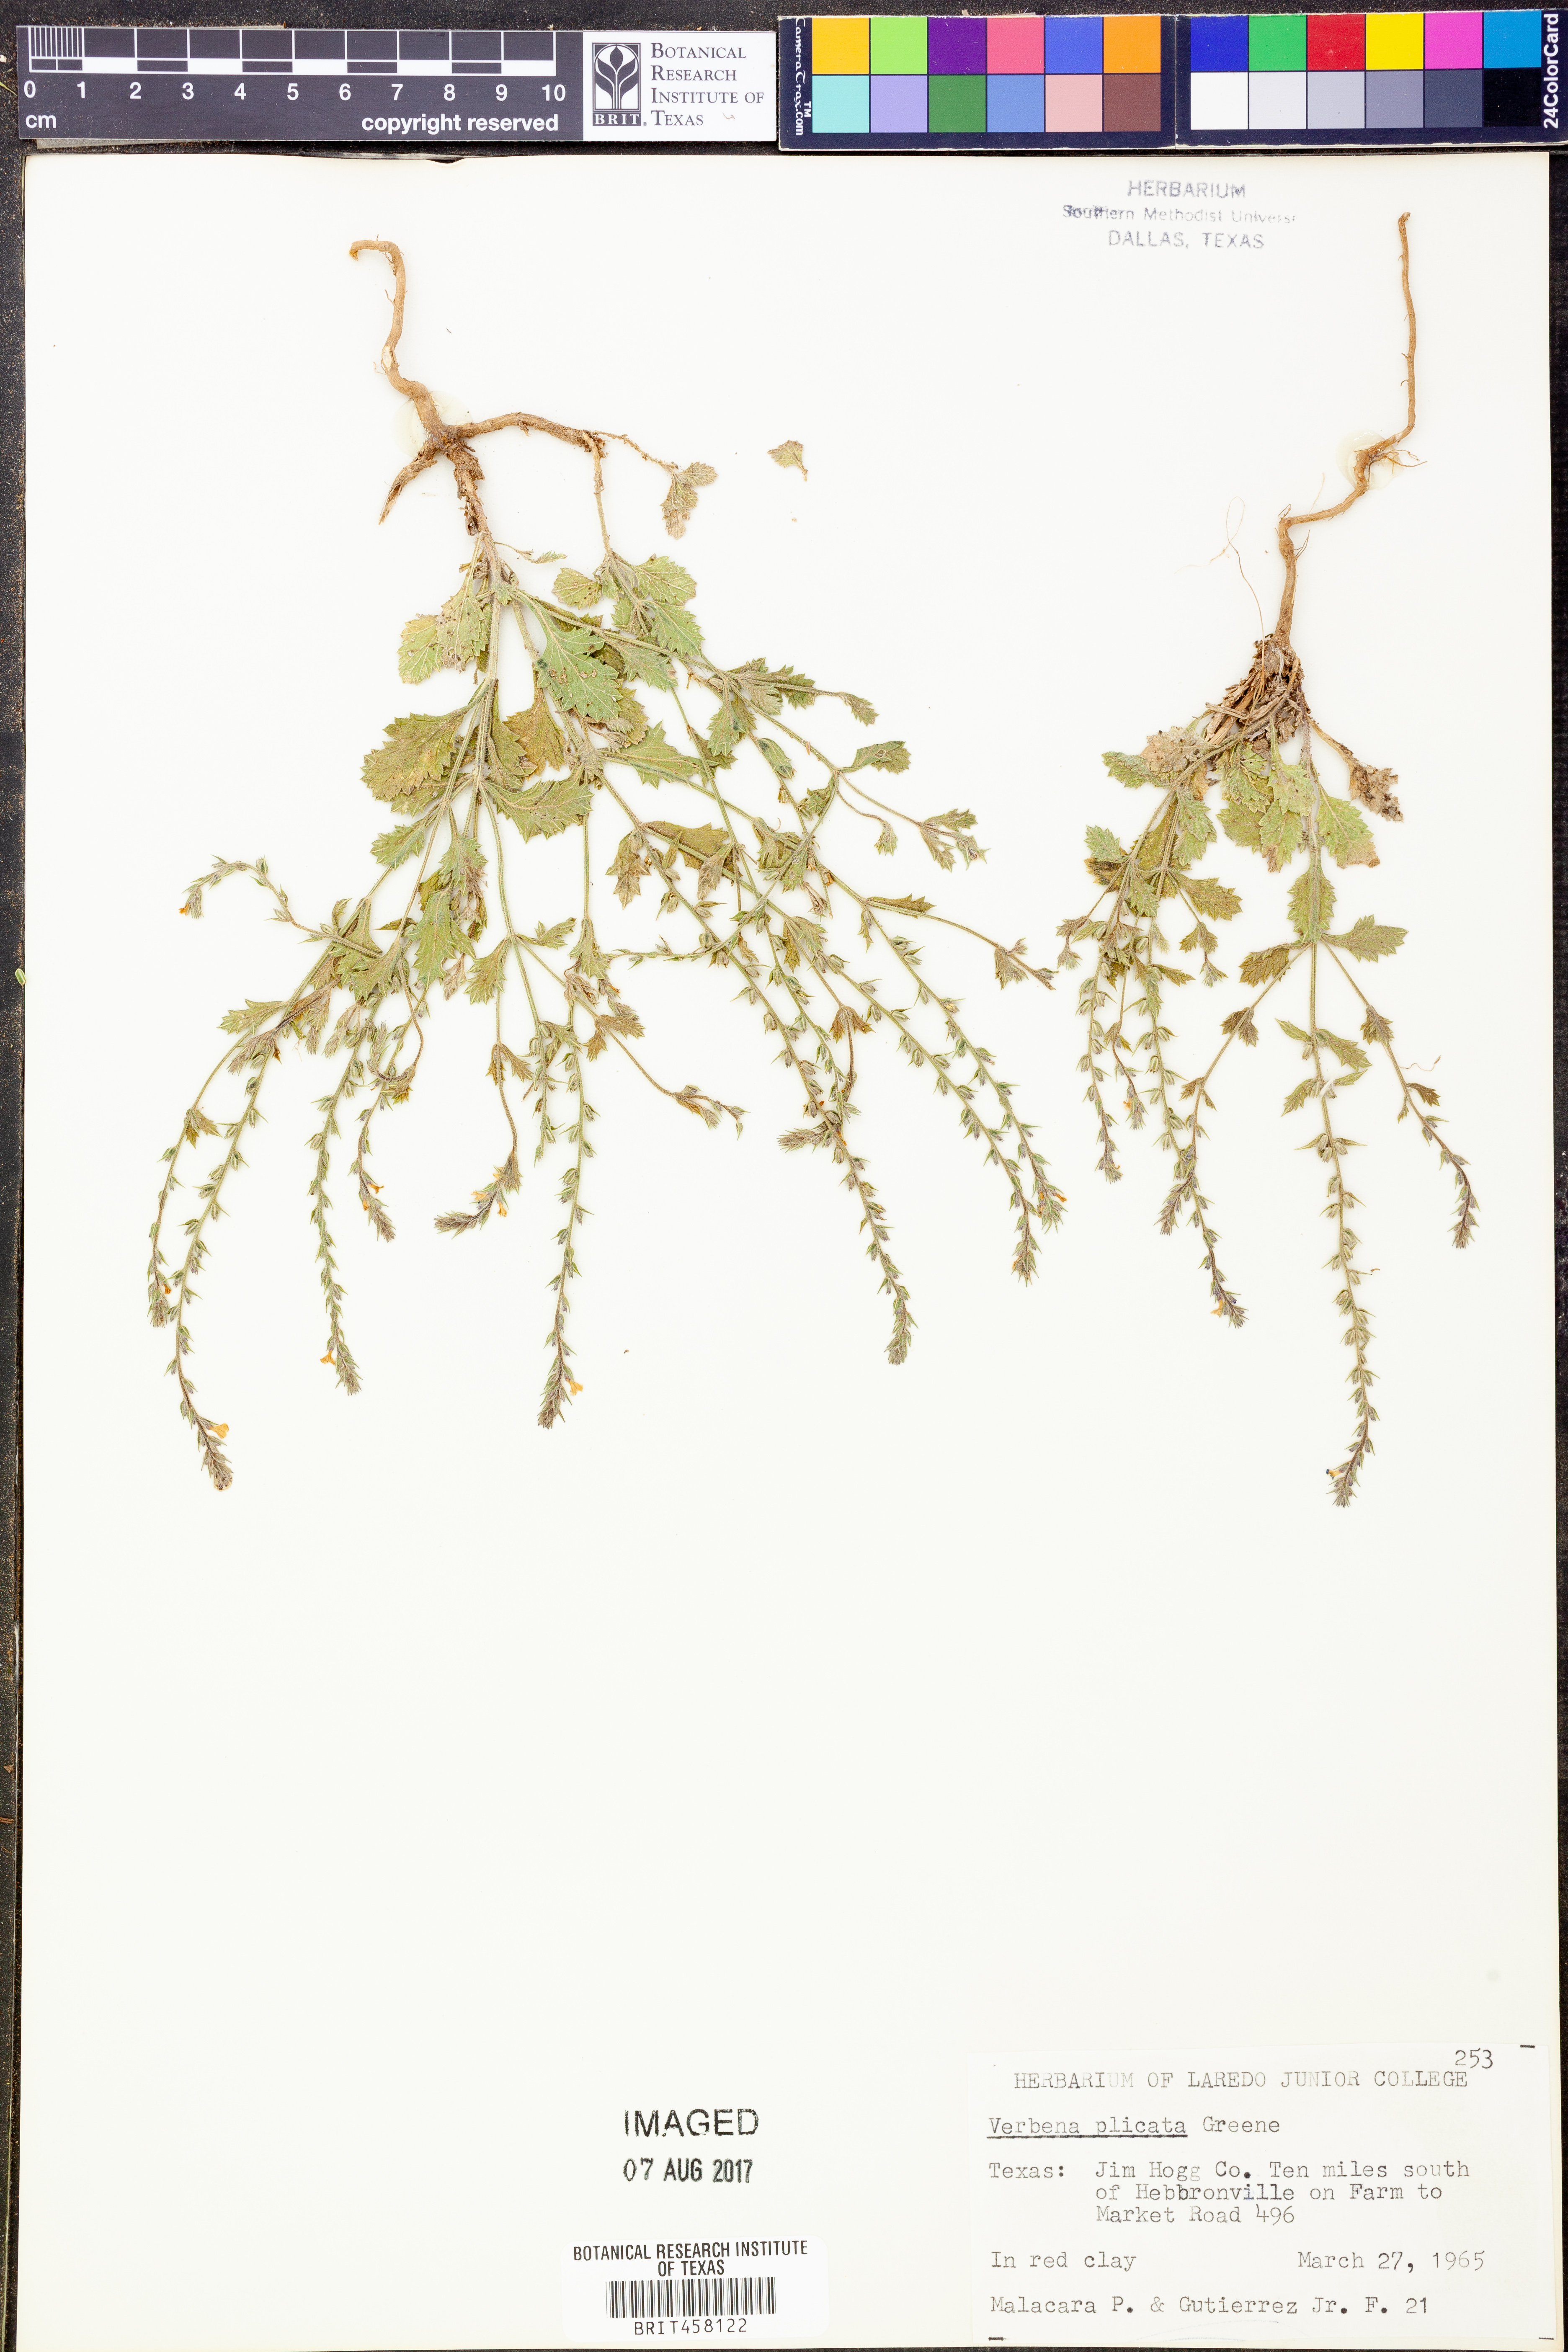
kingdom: Plantae
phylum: Tracheophyta
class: Magnoliopsida
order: Lamiales
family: Verbenaceae
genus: Verbena
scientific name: Verbena plicata
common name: Fan-leaf vervain
